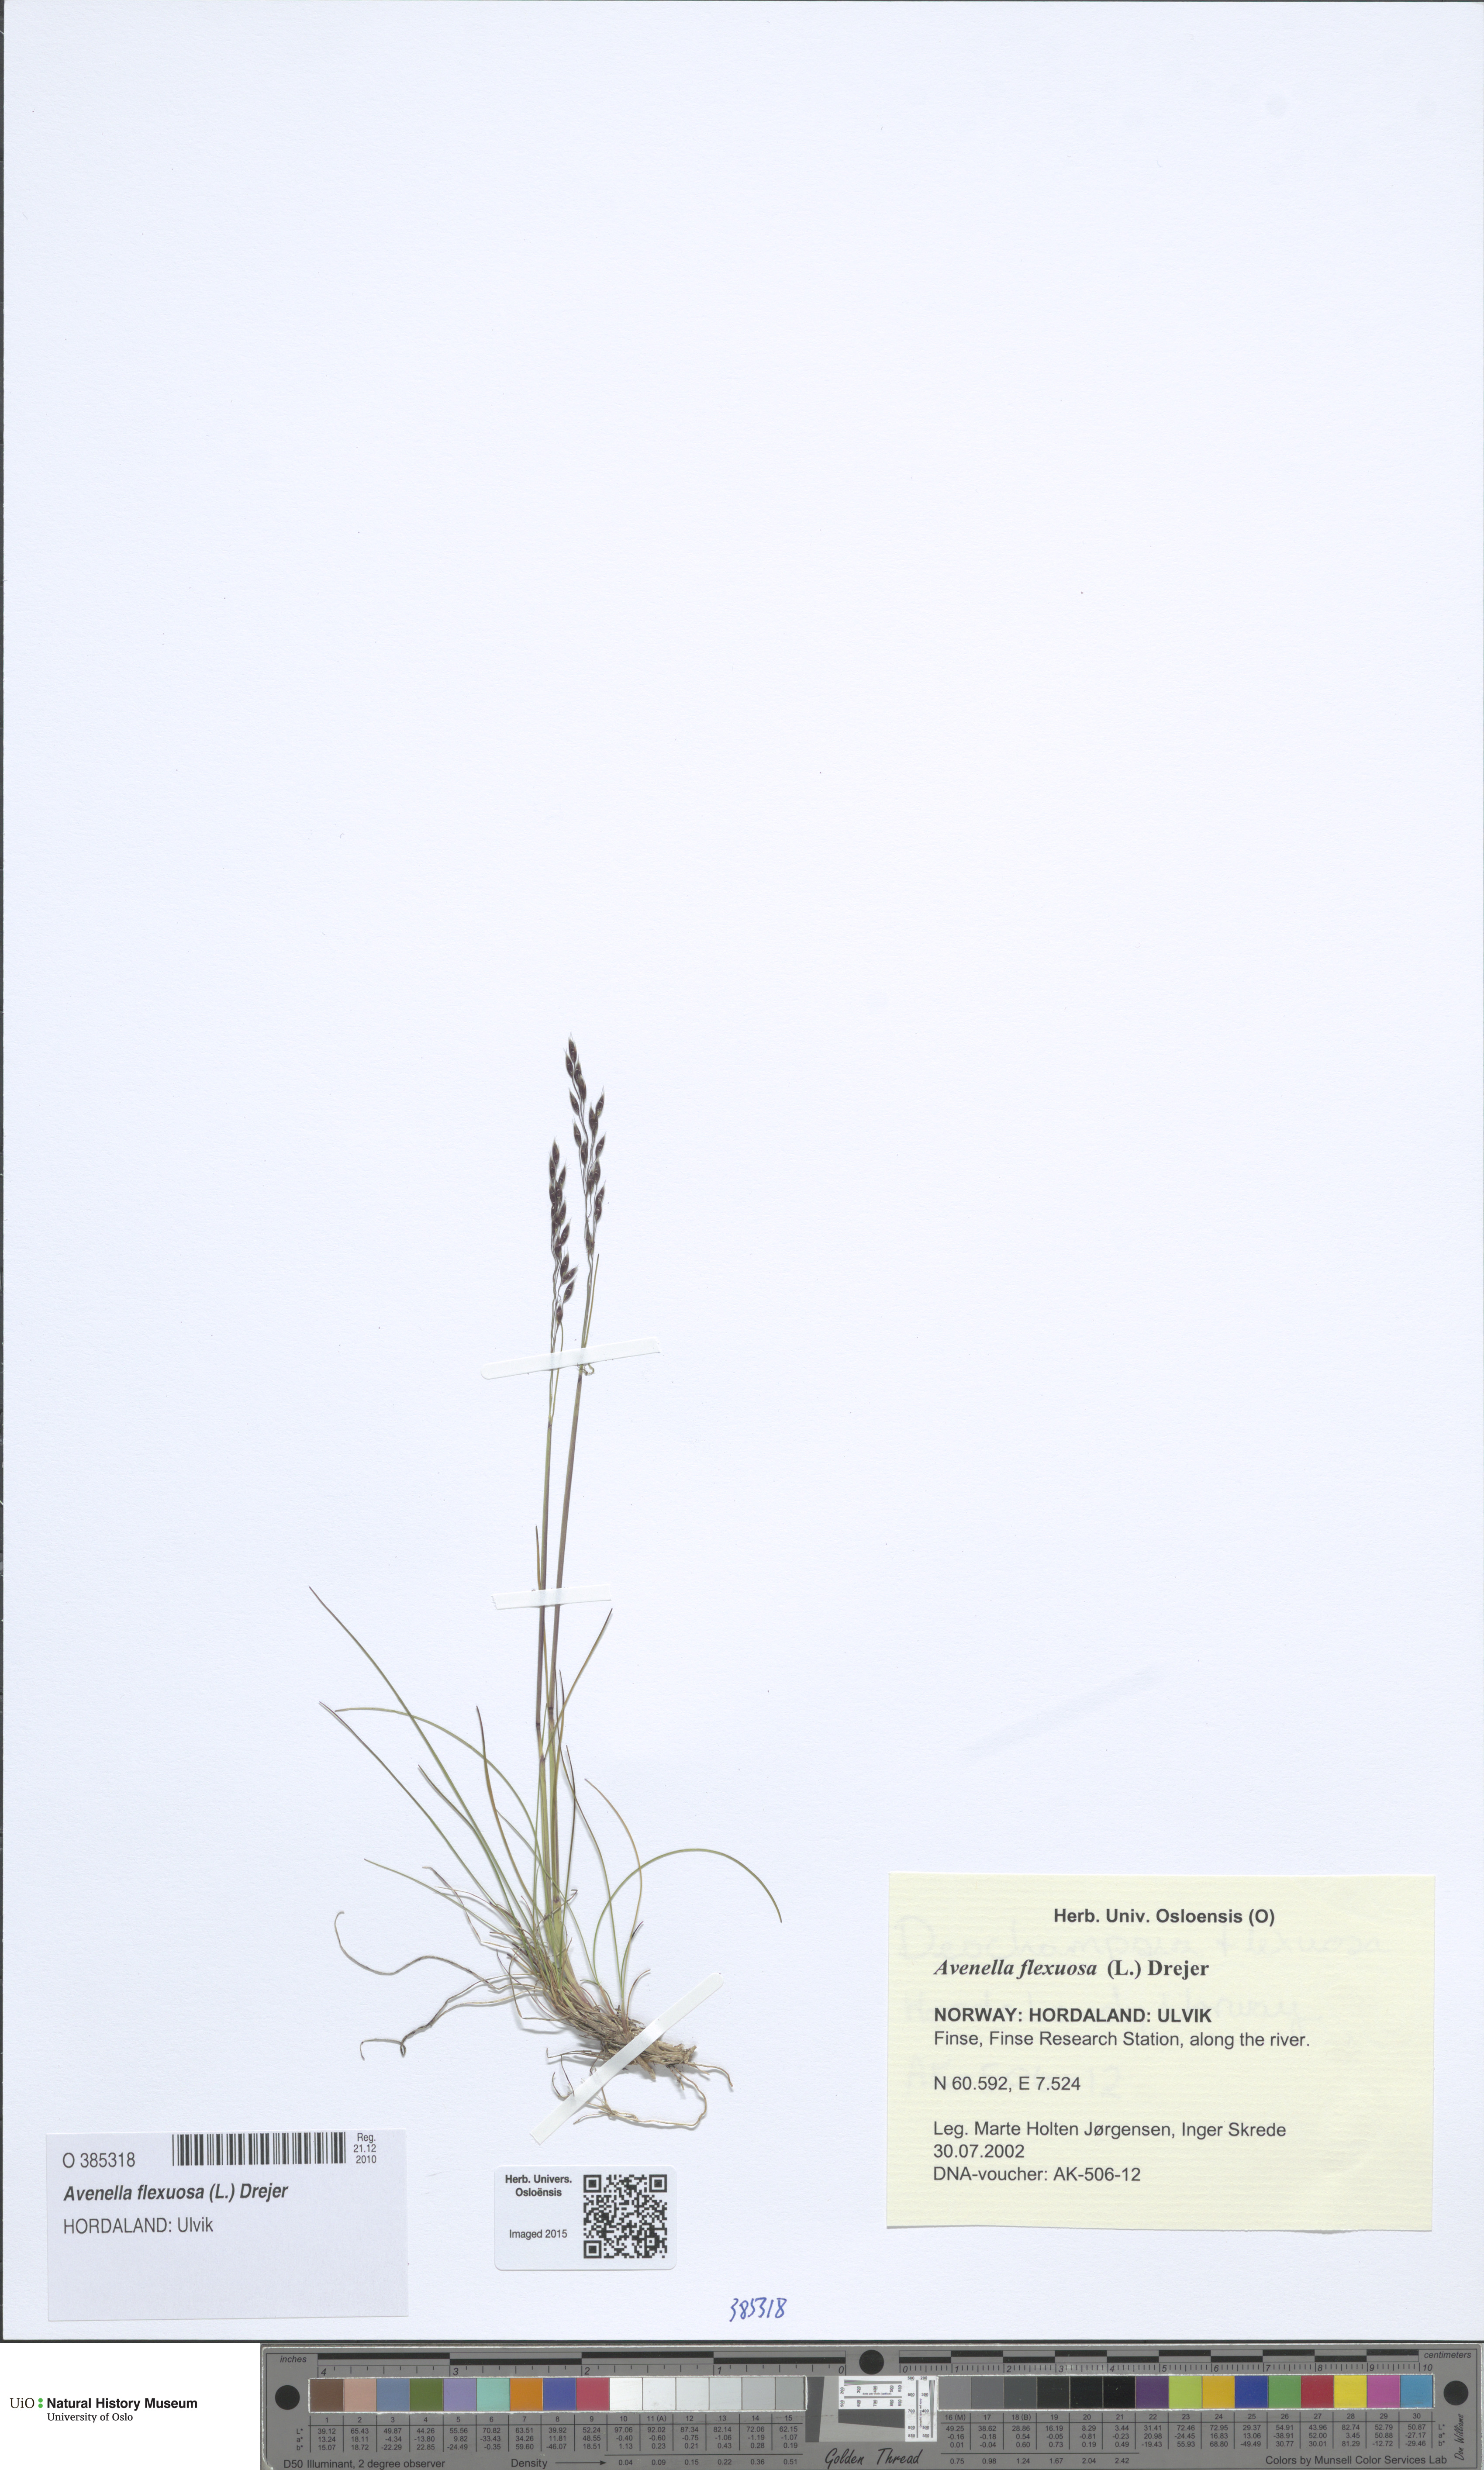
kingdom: Plantae
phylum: Tracheophyta
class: Liliopsida
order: Poales
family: Poaceae
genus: Avenella
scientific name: Avenella flexuosa
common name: Wavy hairgrass
